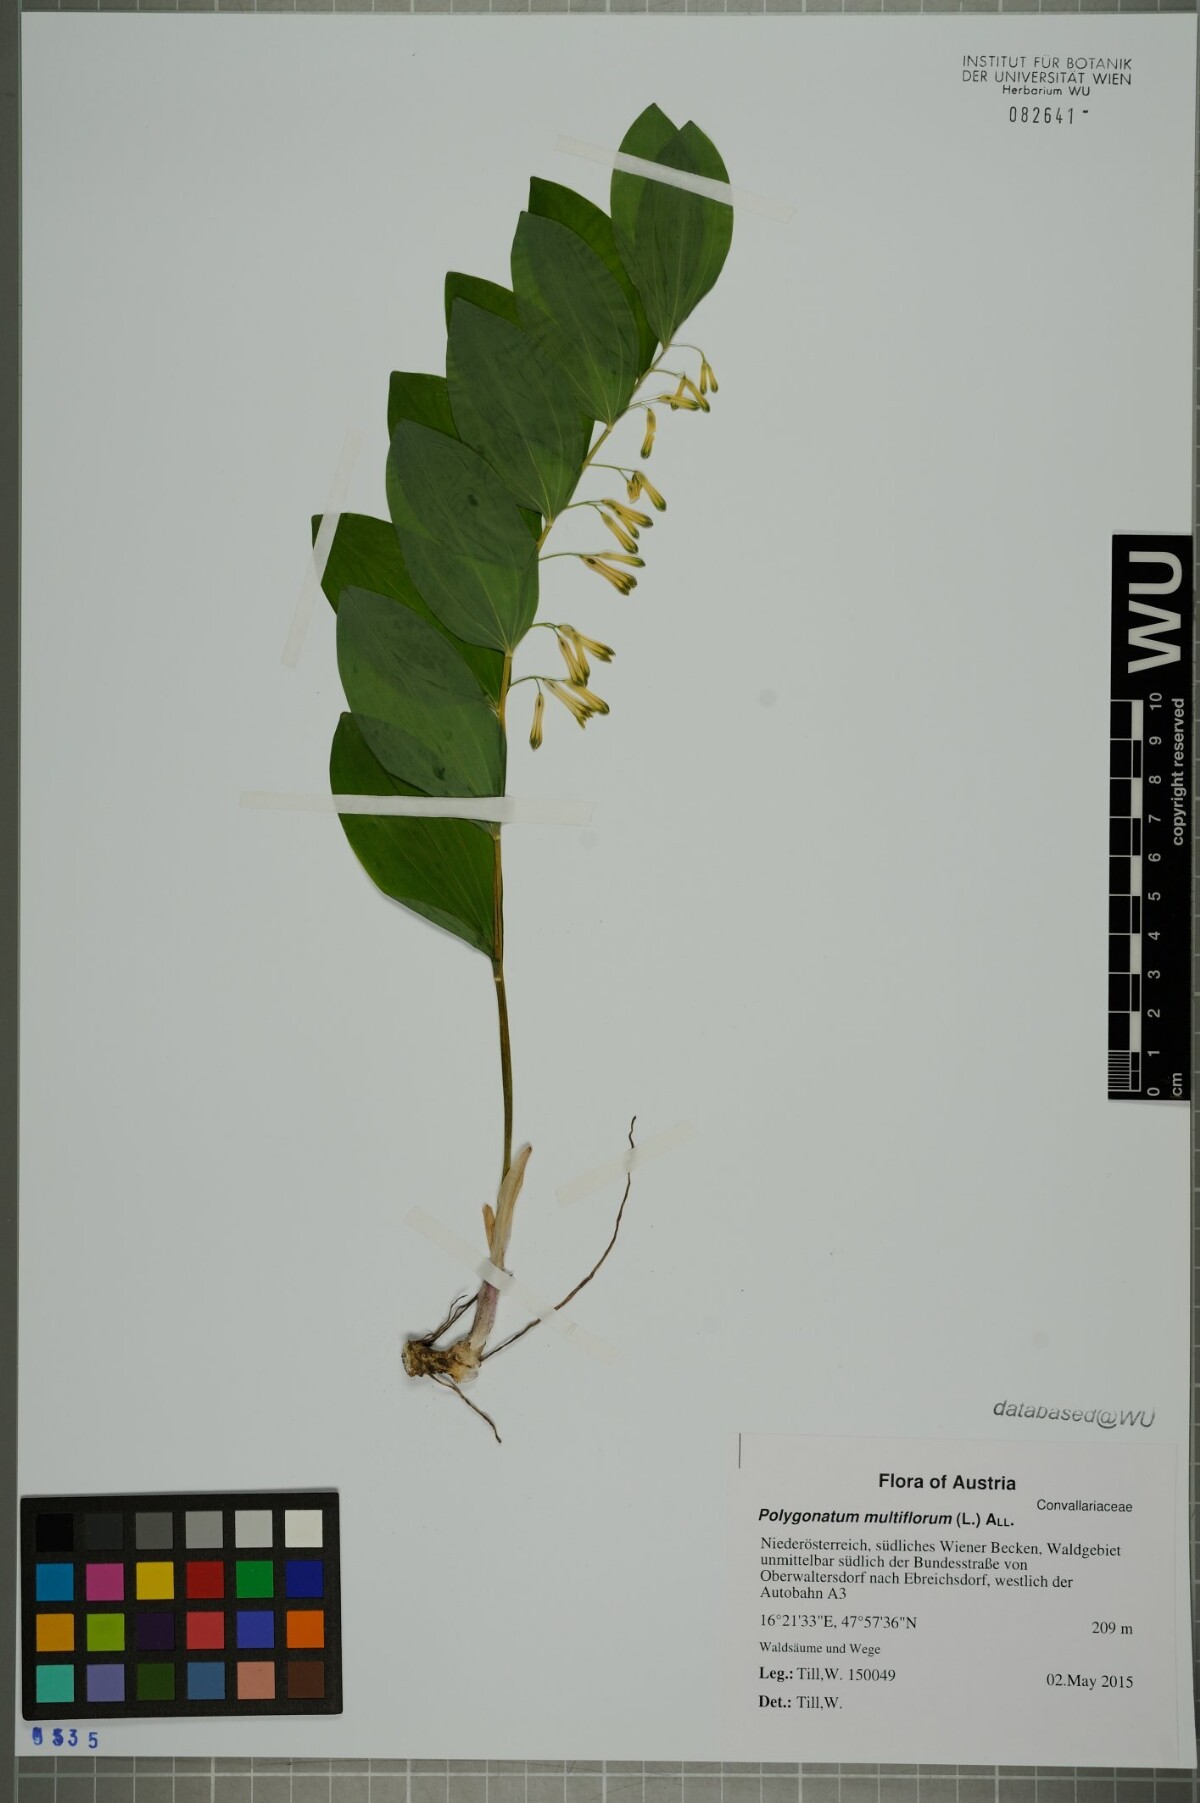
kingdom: Plantae
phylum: Tracheophyta
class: Liliopsida
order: Asparagales
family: Asparagaceae
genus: Polygonatum
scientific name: Polygonatum multiflorum
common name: Solomon's-seal
